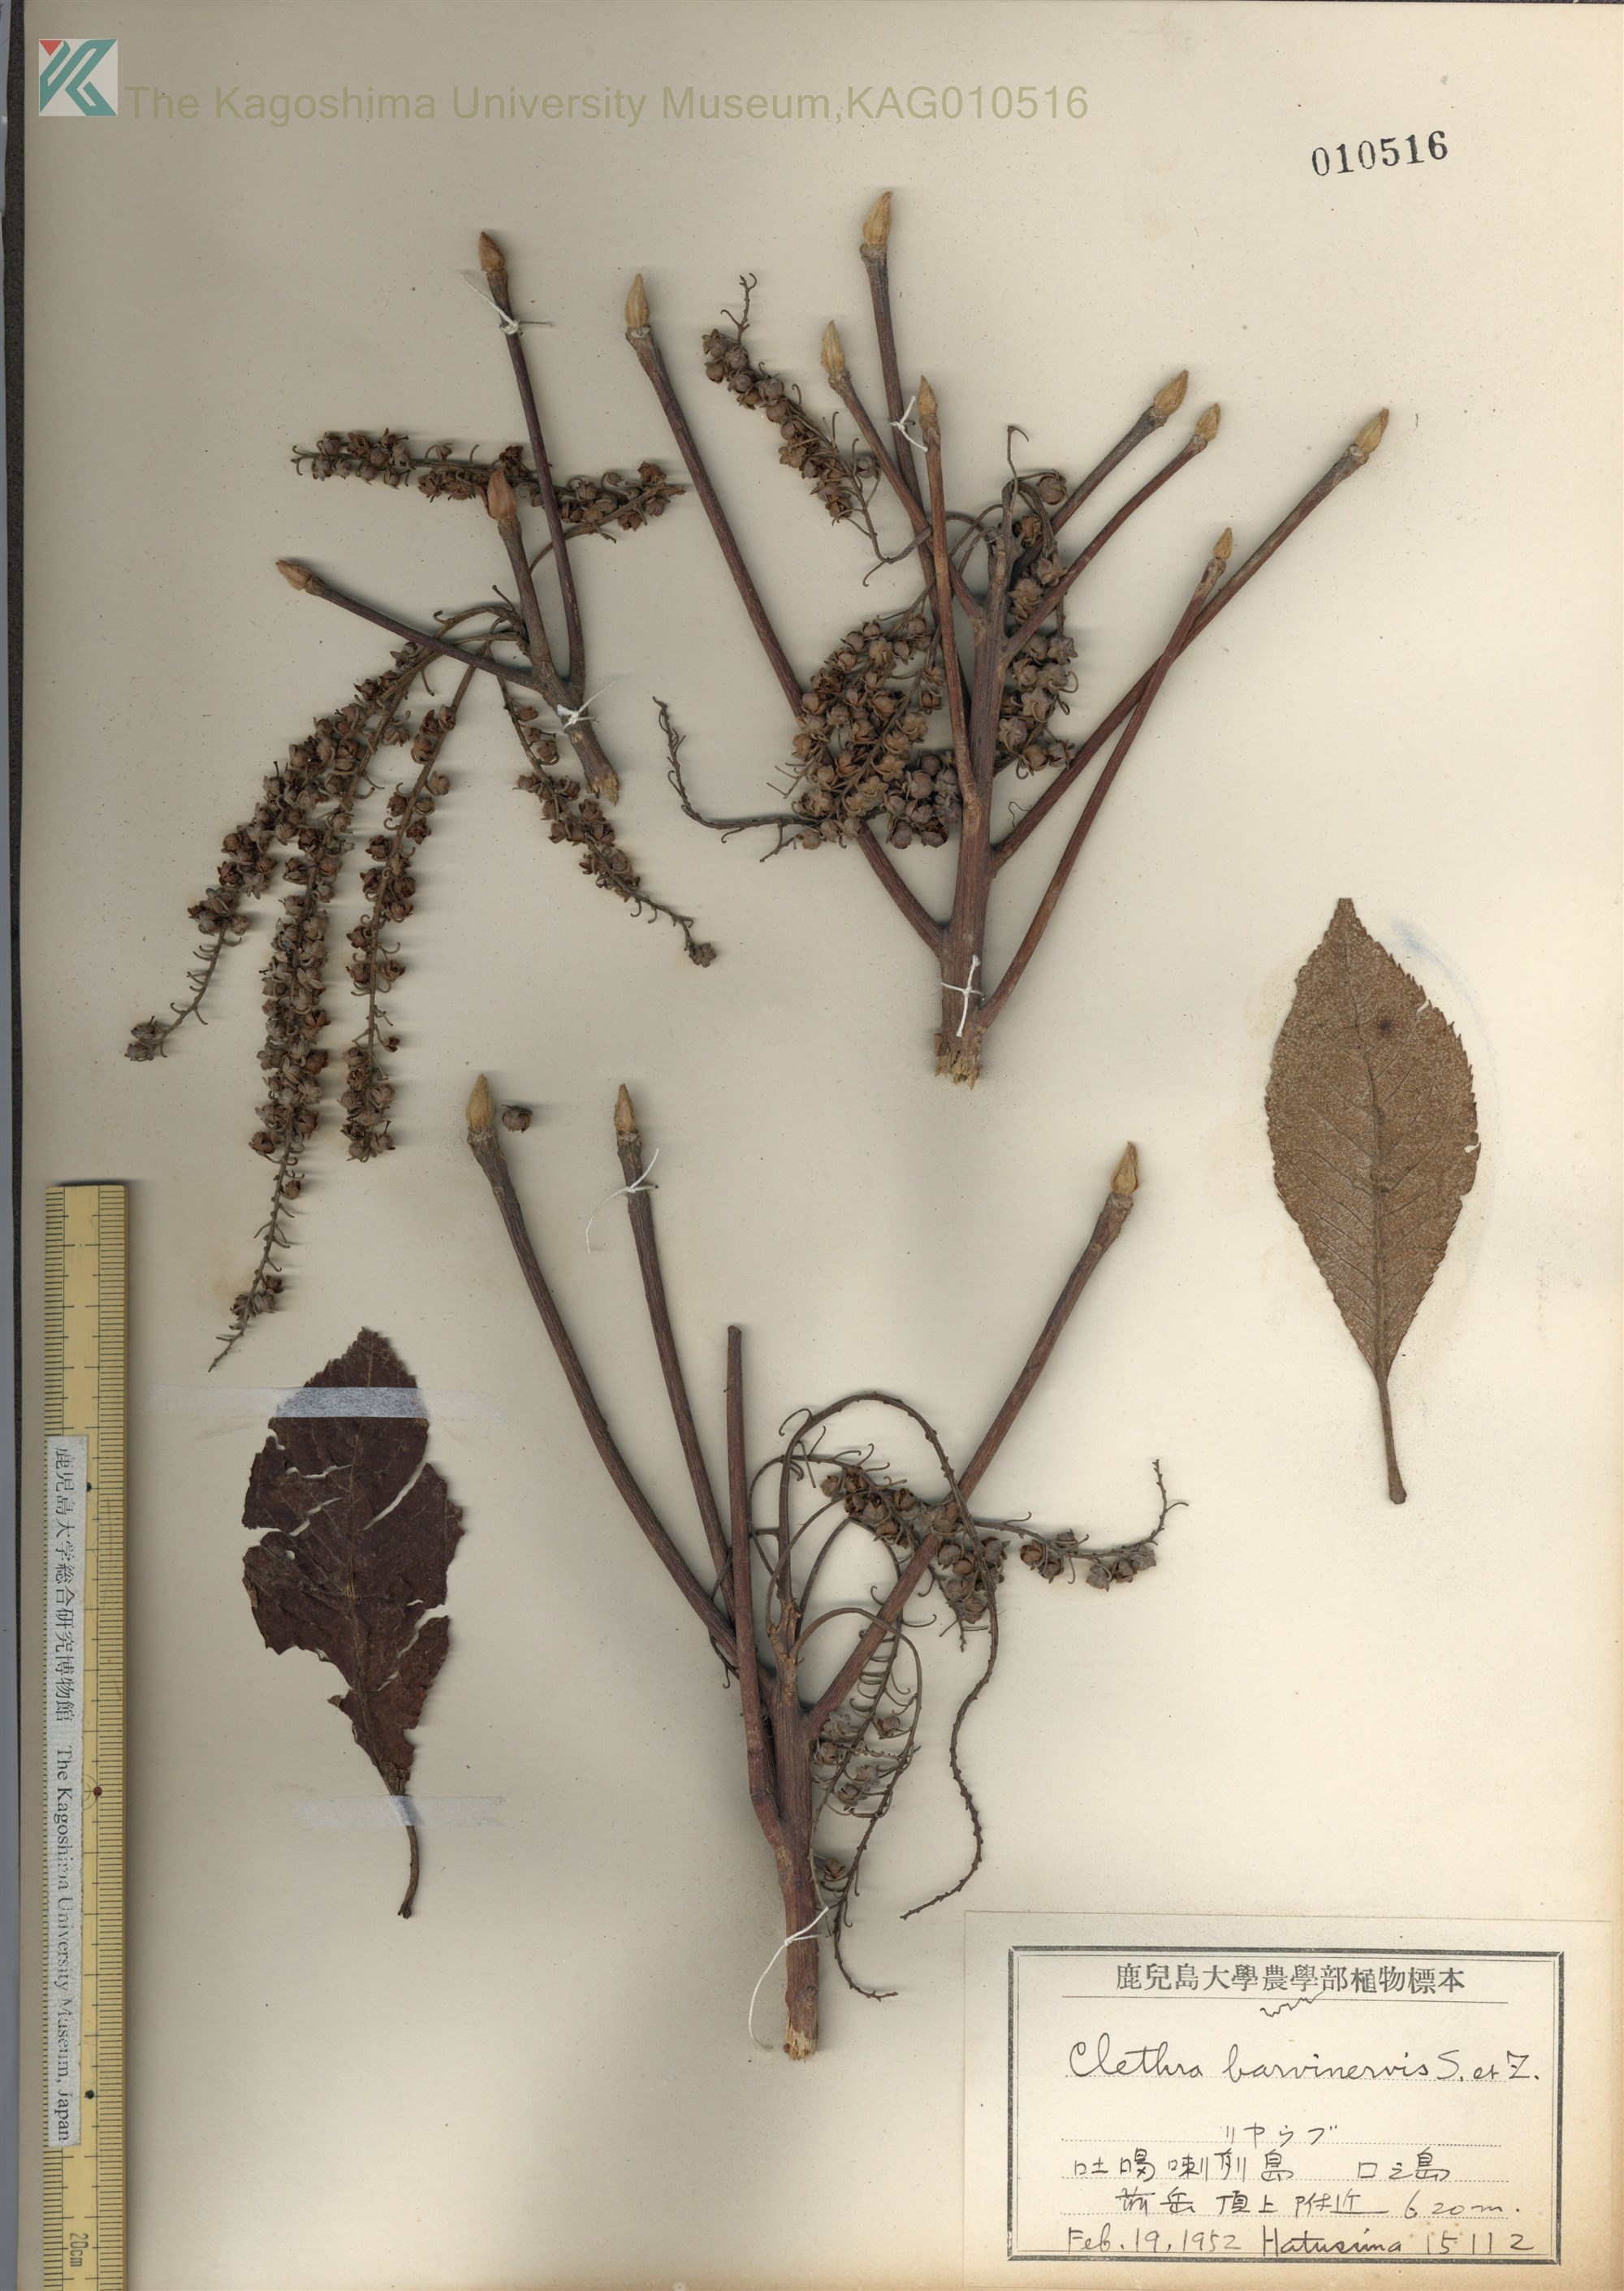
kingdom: Plantae
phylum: Tracheophyta
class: Magnoliopsida
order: Ericales
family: Clethraceae
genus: Clethra
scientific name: Clethra barbinervis
